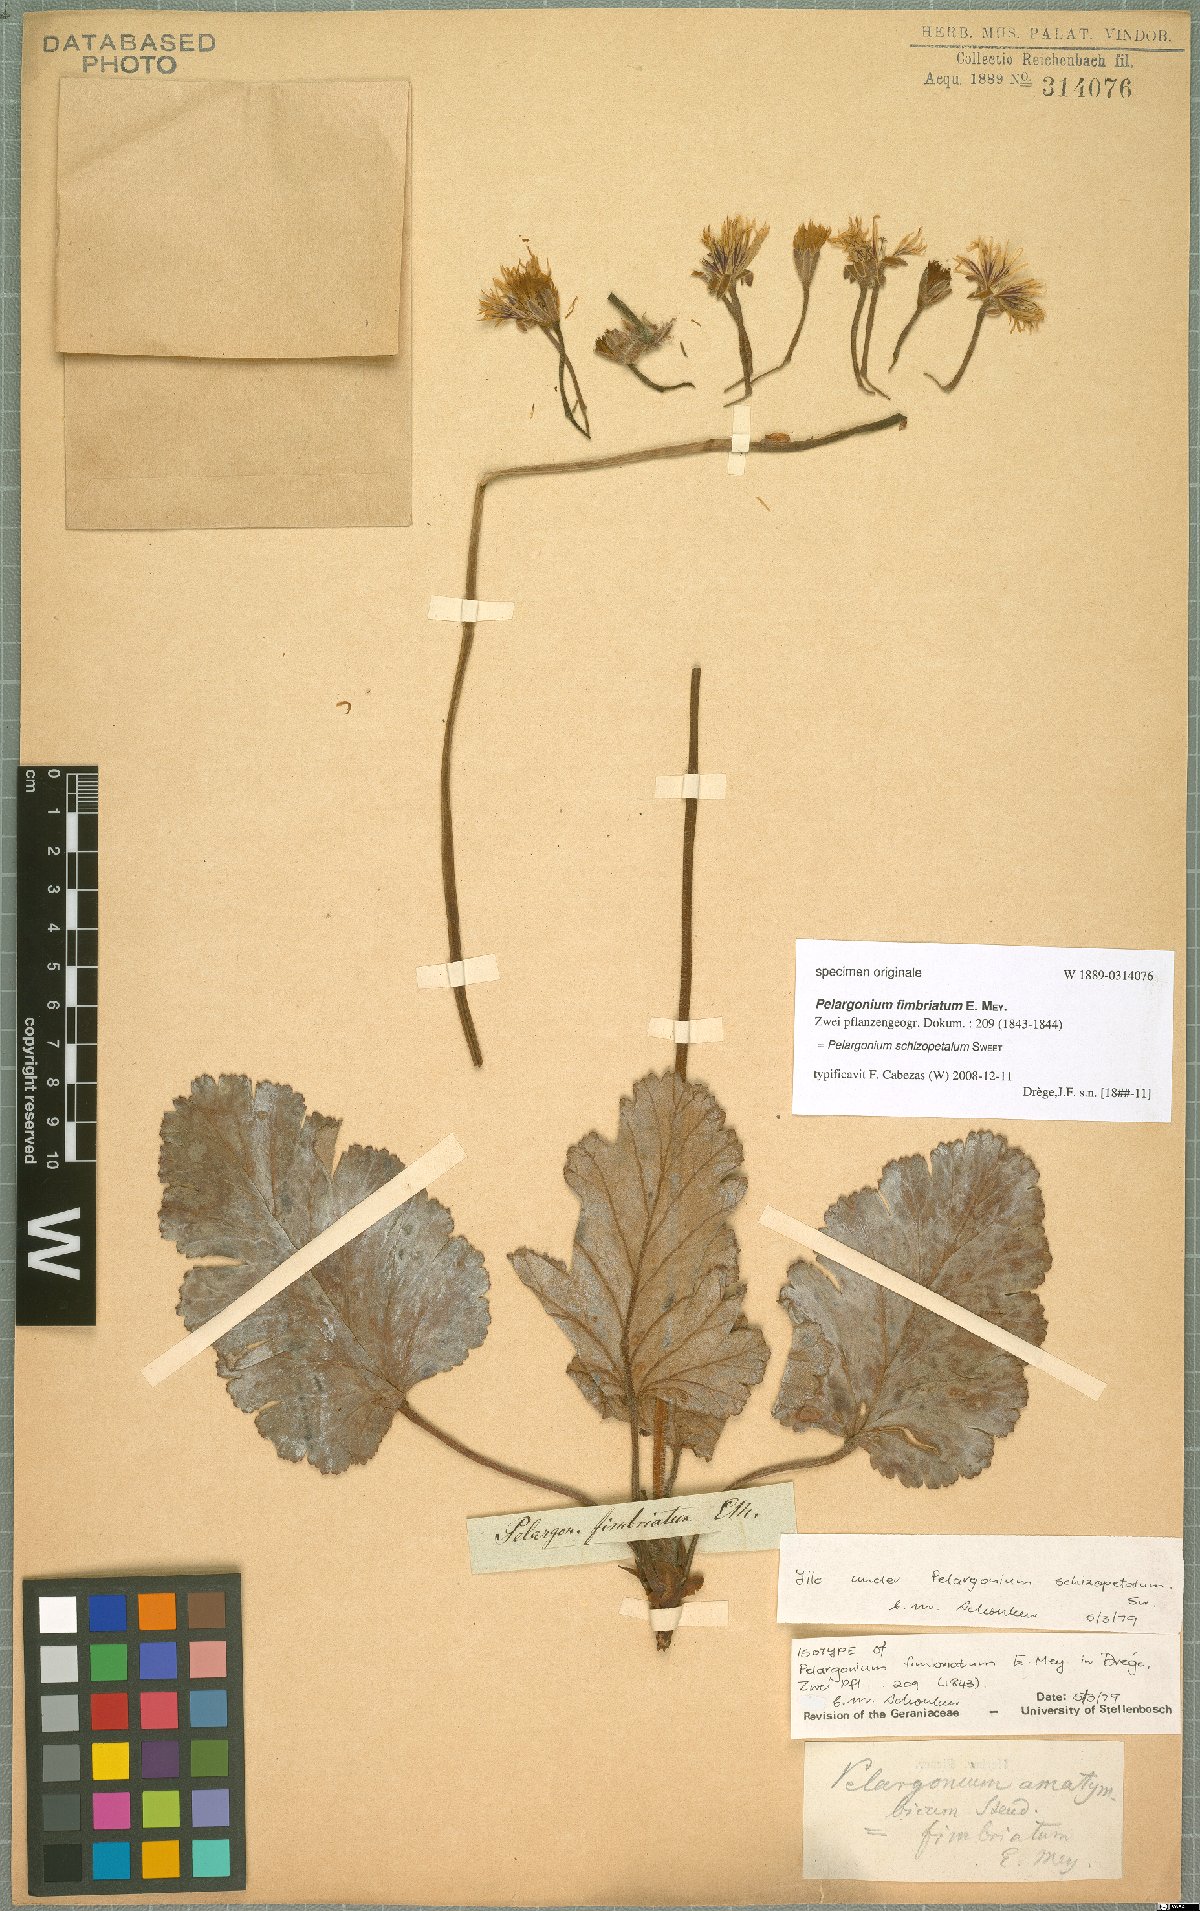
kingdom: Plantae
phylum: Tracheophyta
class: Magnoliopsida
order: Geraniales
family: Geraniaceae
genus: Pelargonium
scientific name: Pelargonium schizopetalum
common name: Divided-petal pelargonium
